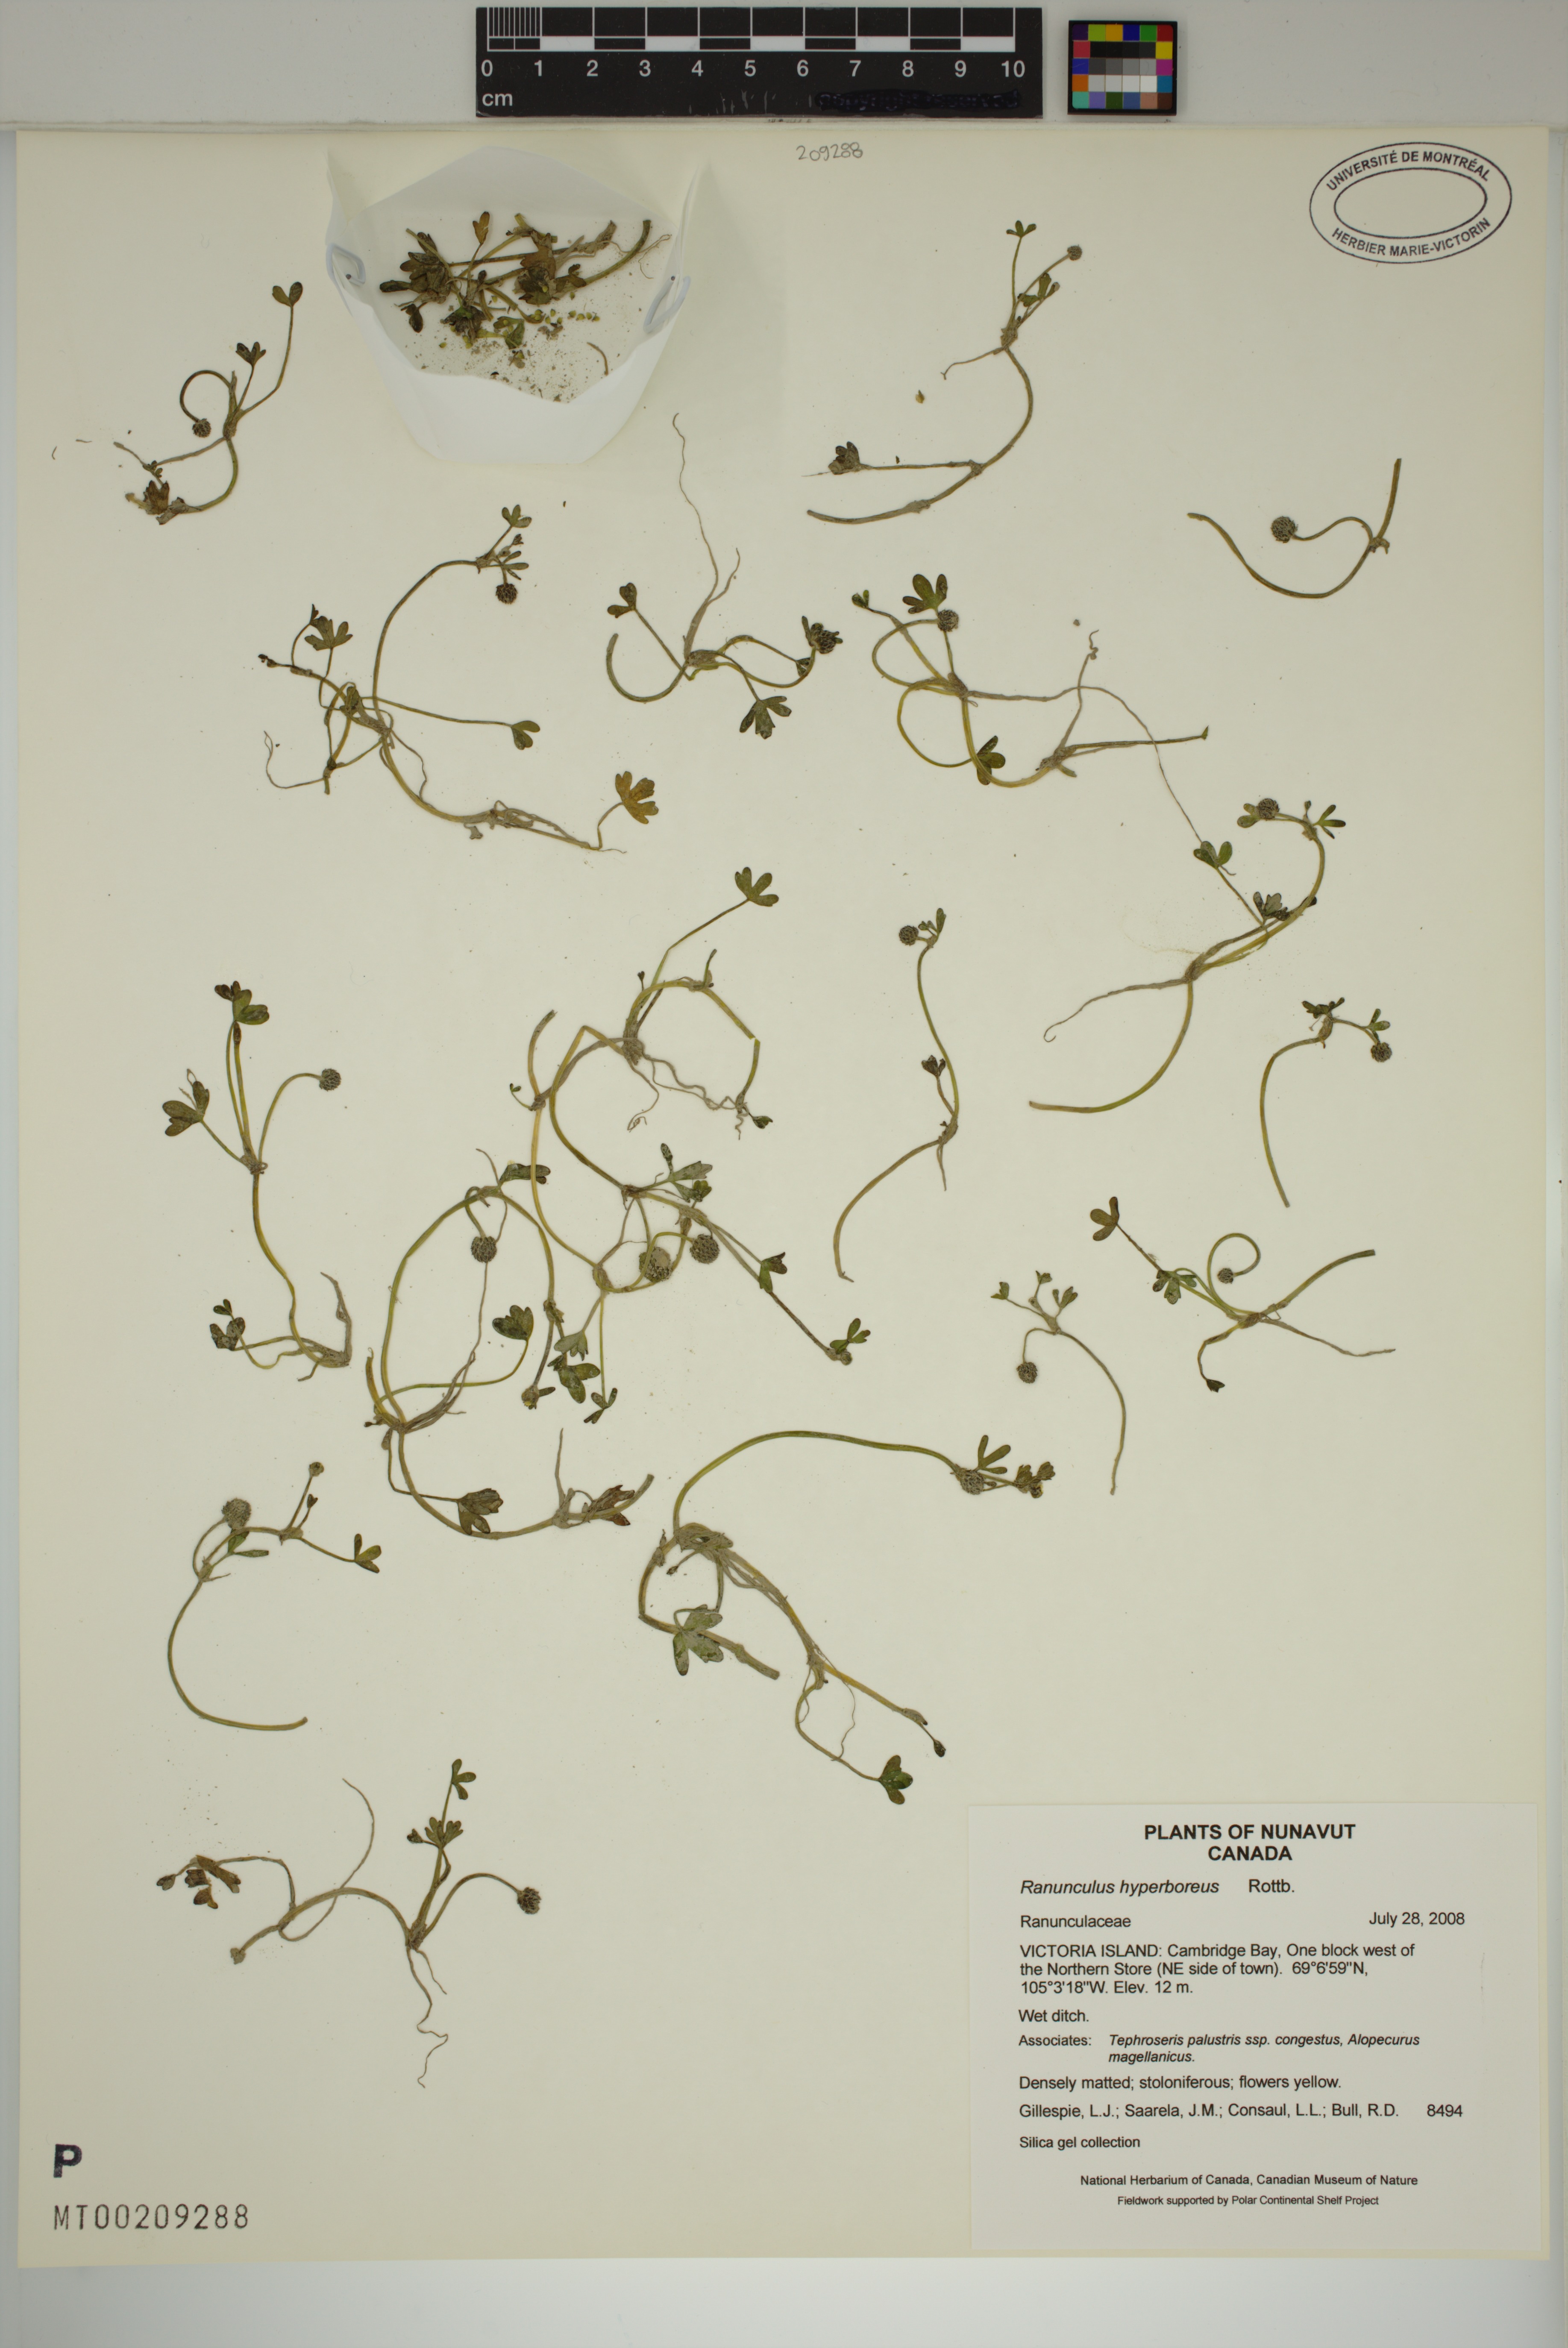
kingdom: Plantae
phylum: Tracheophyta
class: Magnoliopsida
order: Ranunculales
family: Ranunculaceae
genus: Ranunculus
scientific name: Ranunculus hyperboreus
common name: Arctic buttercup
